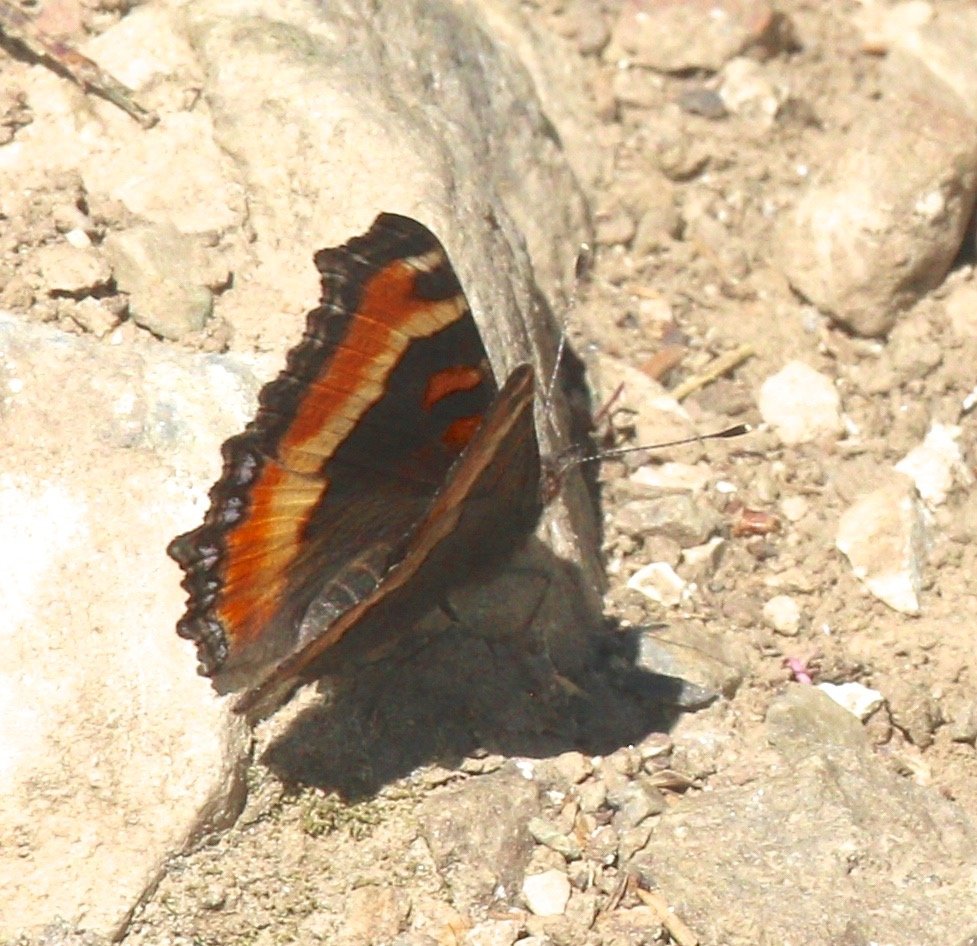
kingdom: Animalia
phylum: Arthropoda
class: Insecta
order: Lepidoptera
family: Nymphalidae
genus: Aglais
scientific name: Aglais milberti
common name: Milbert's Tortoiseshell
